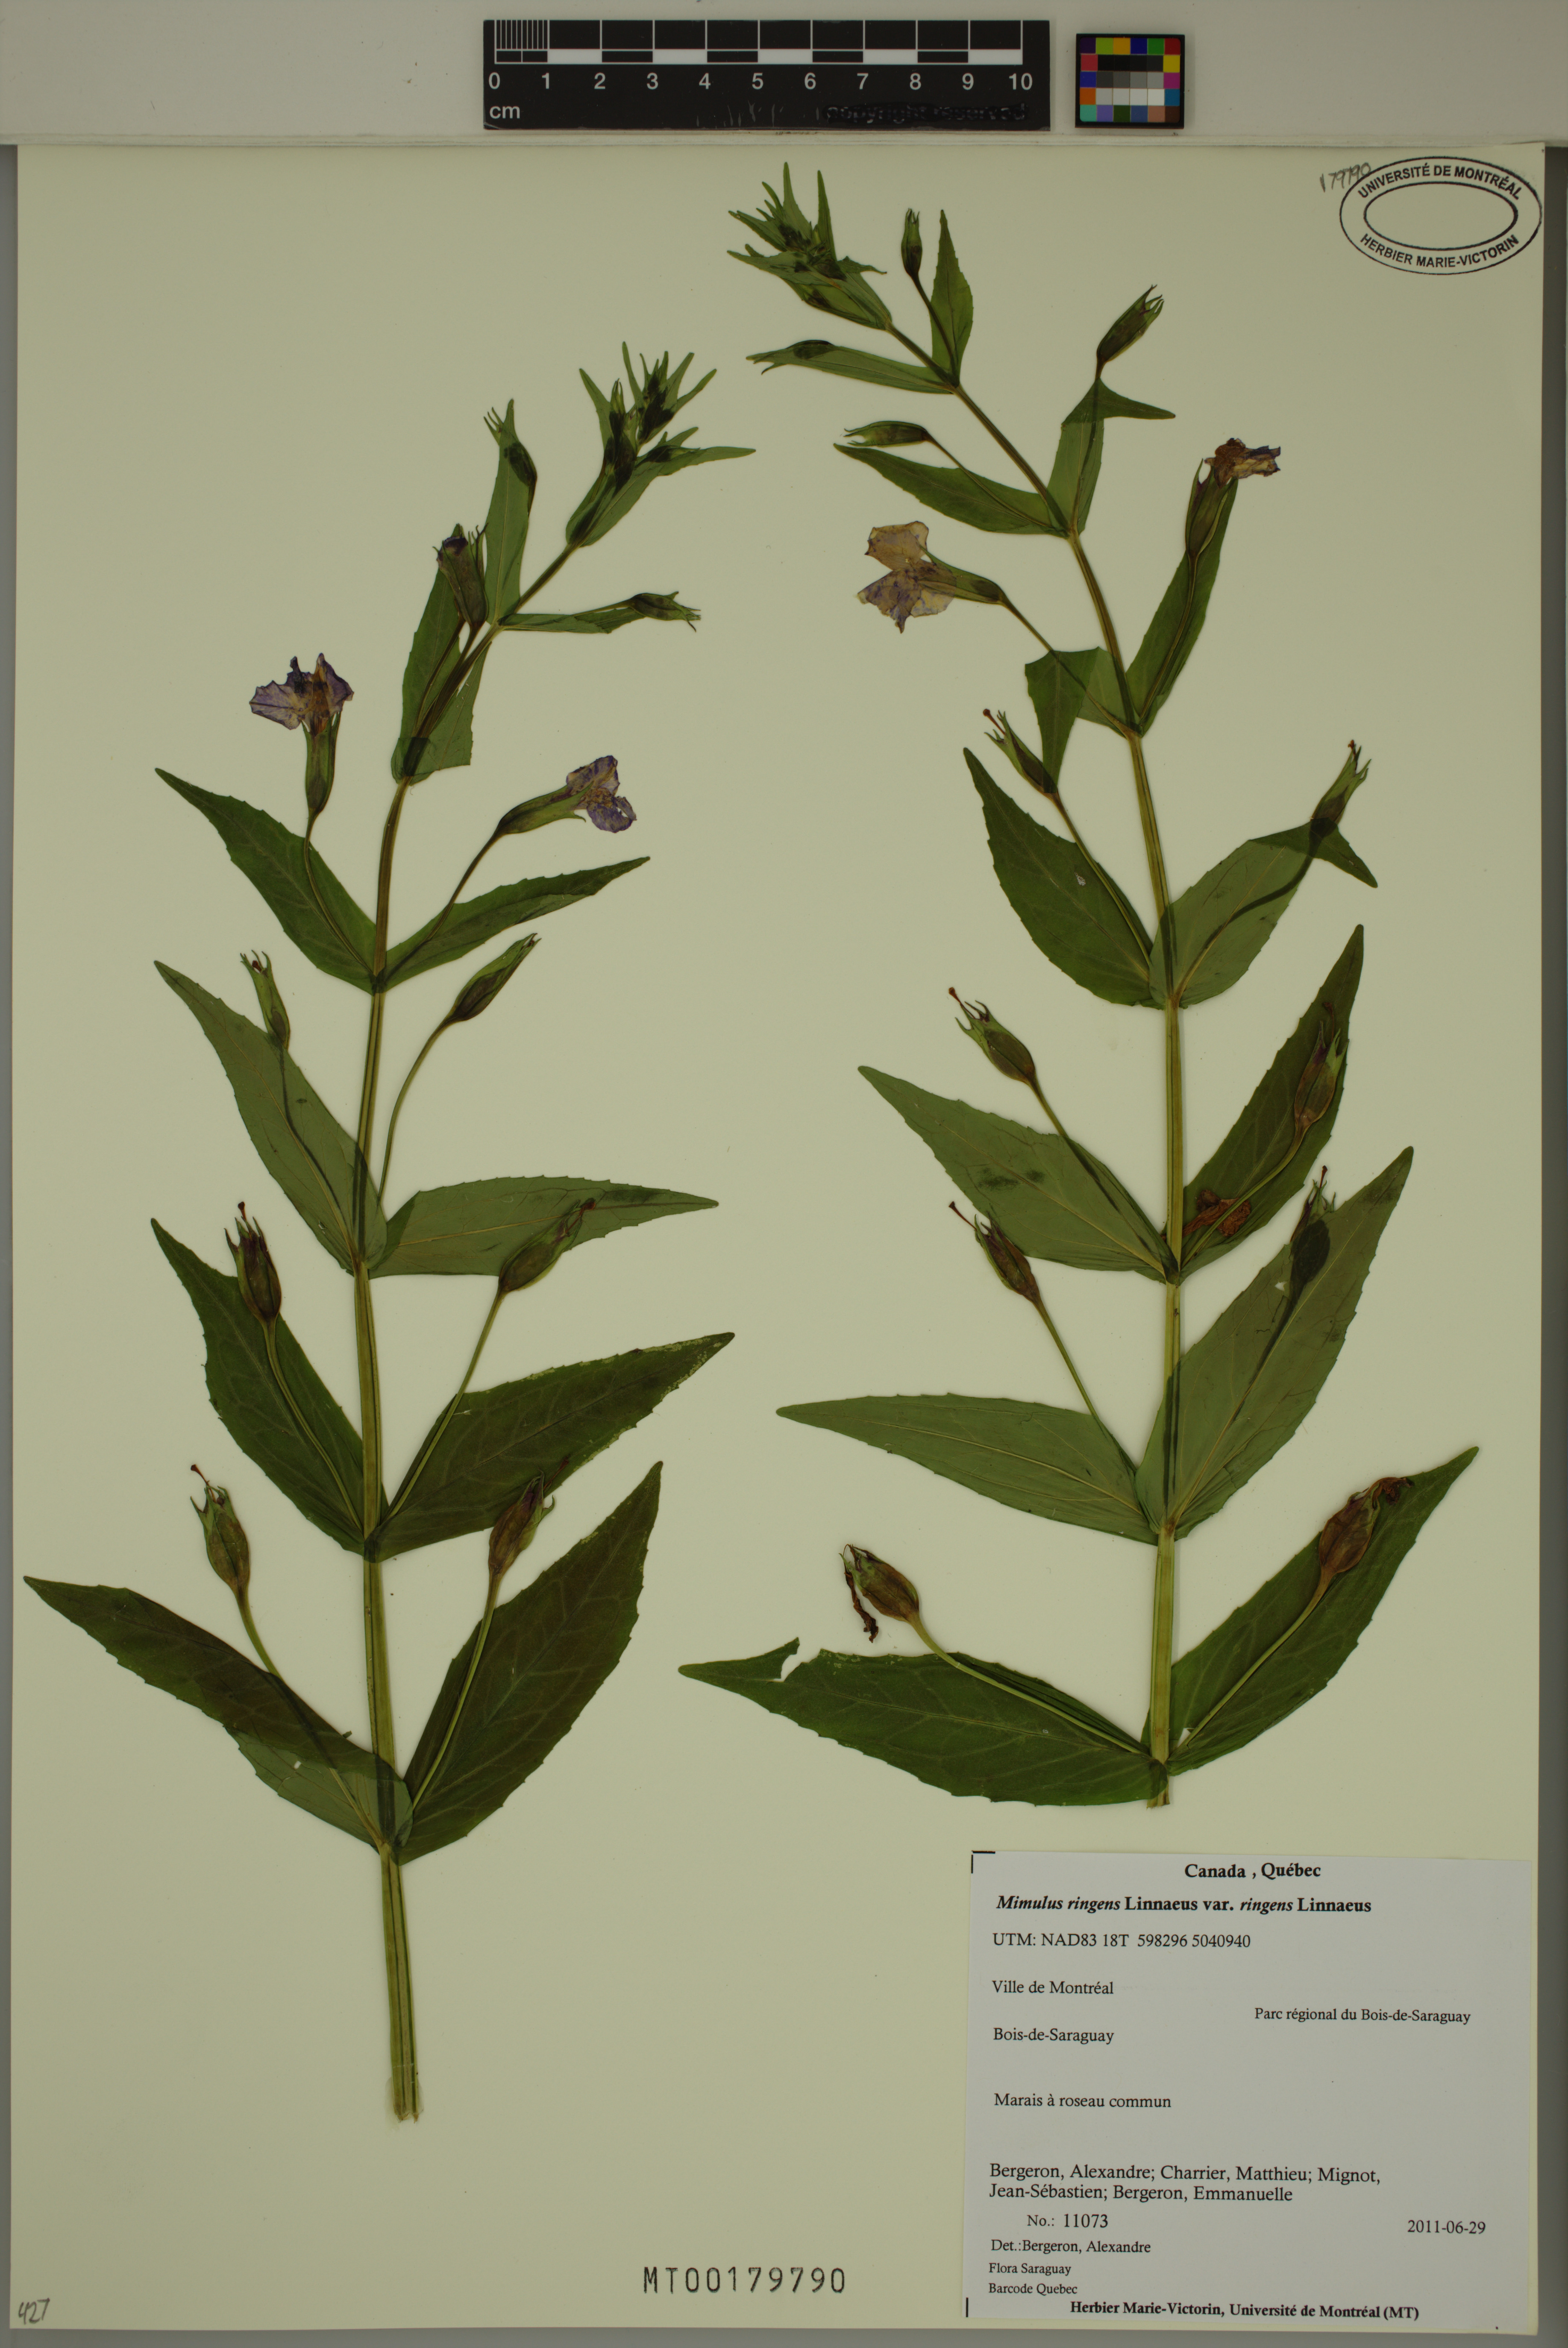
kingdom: Plantae
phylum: Tracheophyta
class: Magnoliopsida
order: Lamiales
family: Phrymaceae
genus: Mimulus
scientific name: Mimulus ringens
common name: Allegheny monkeyflower
